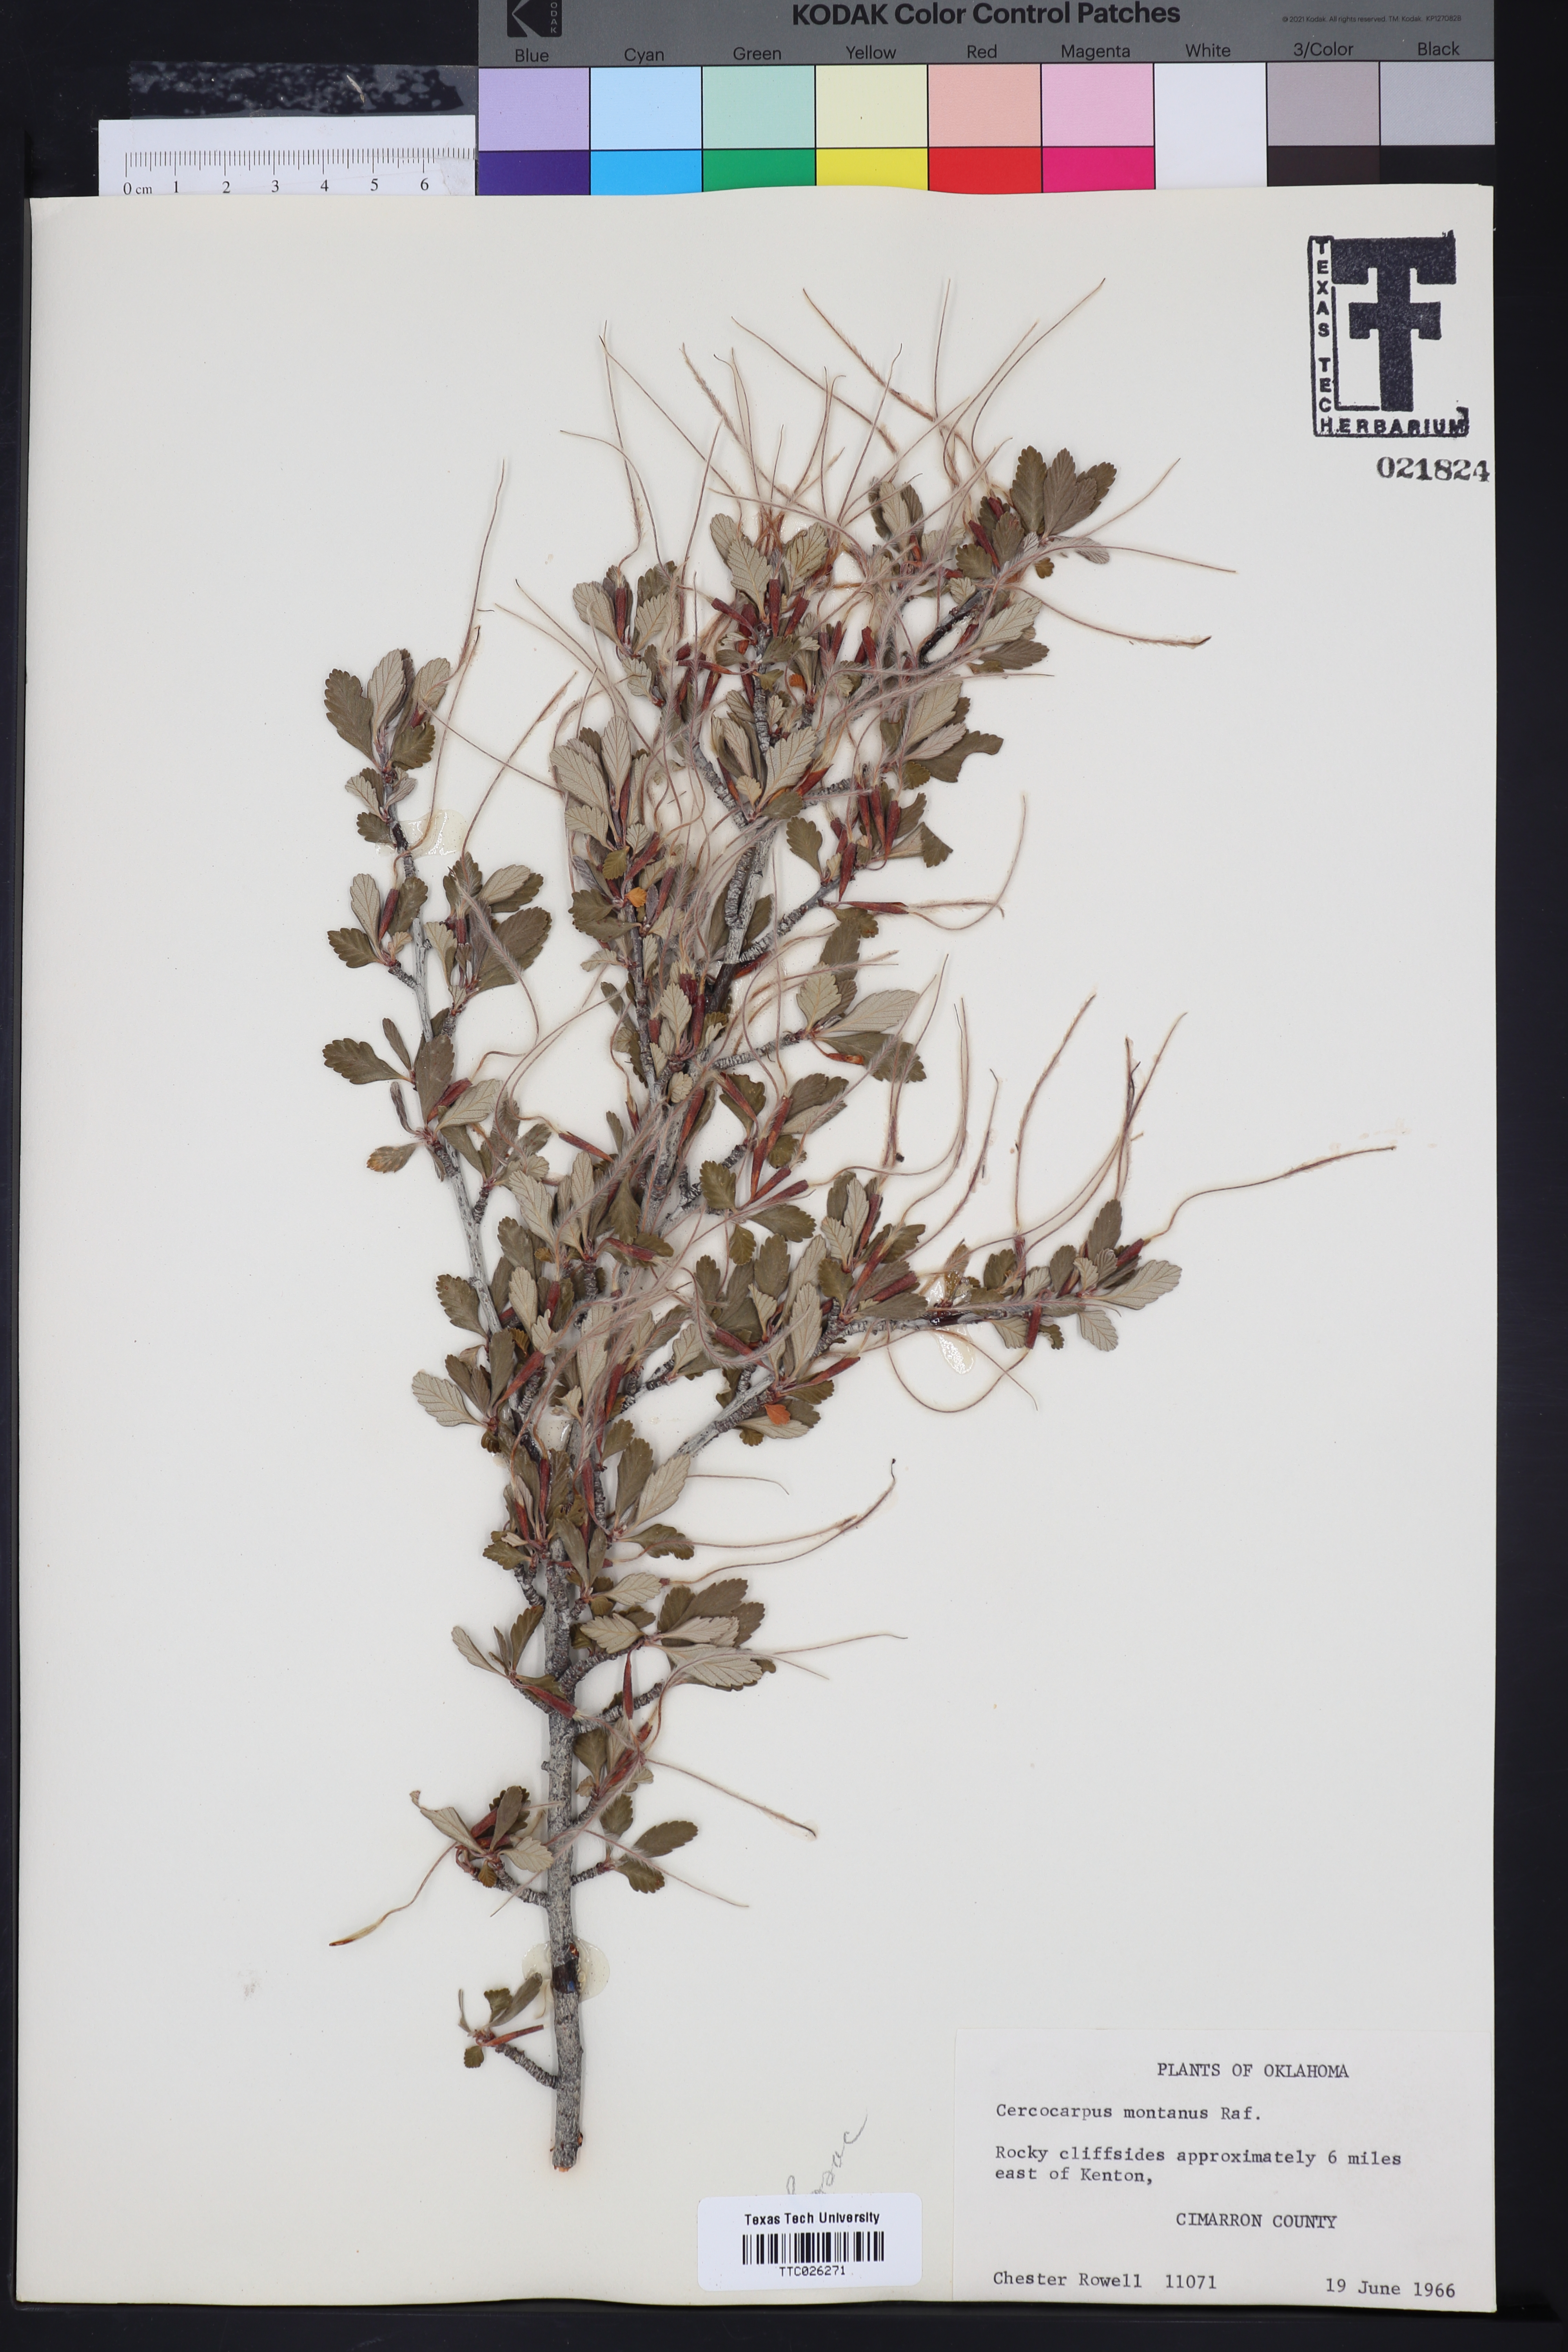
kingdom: Plantae
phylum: Tracheophyta
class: Magnoliopsida
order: Rosales
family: Rosaceae
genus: Cercocarpus
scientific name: Cercocarpus montanus
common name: Alder-leaf cercocarpus
